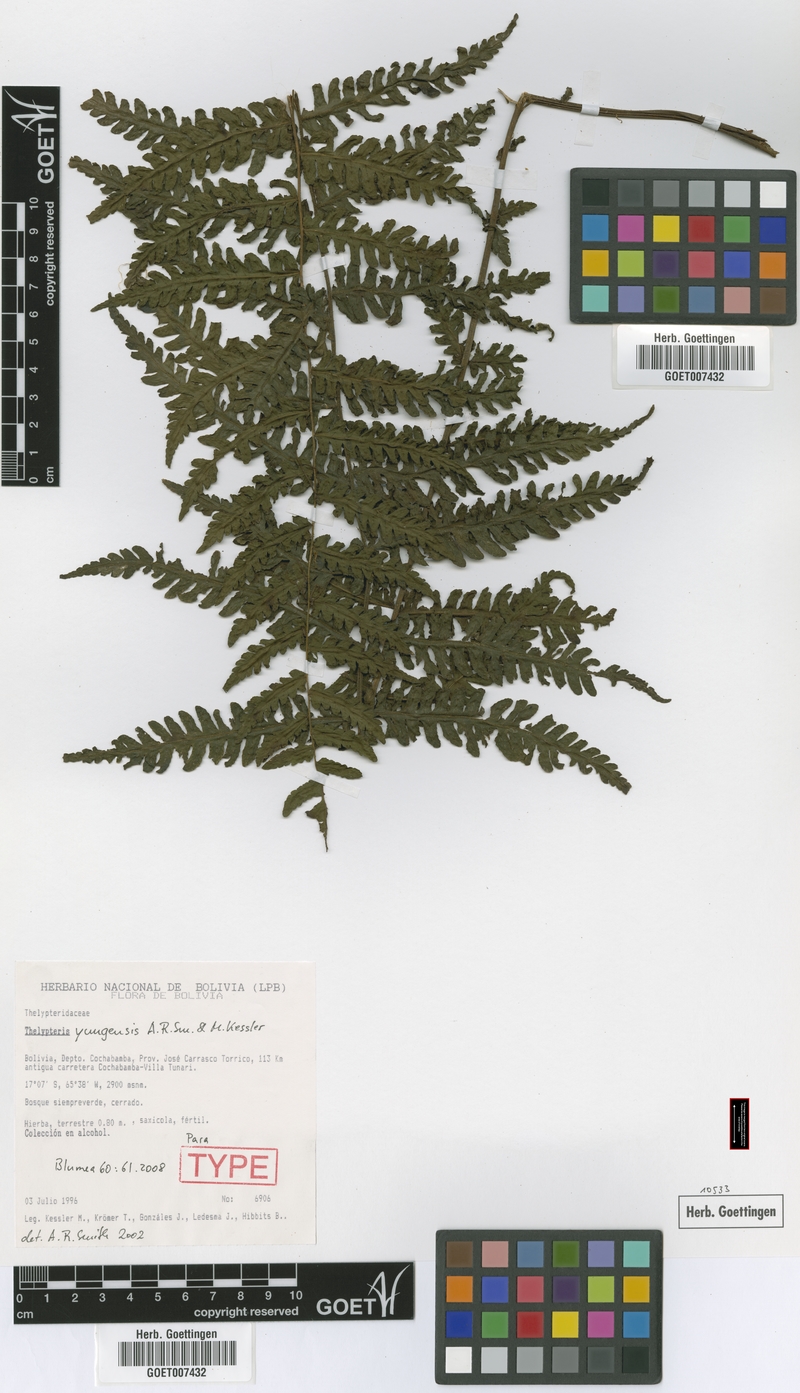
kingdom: Plantae
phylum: Tracheophyta
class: Polypodiopsida
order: Polypodiales
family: Thelypteridaceae
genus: Amauropelta
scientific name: Amauropelta yungensis
